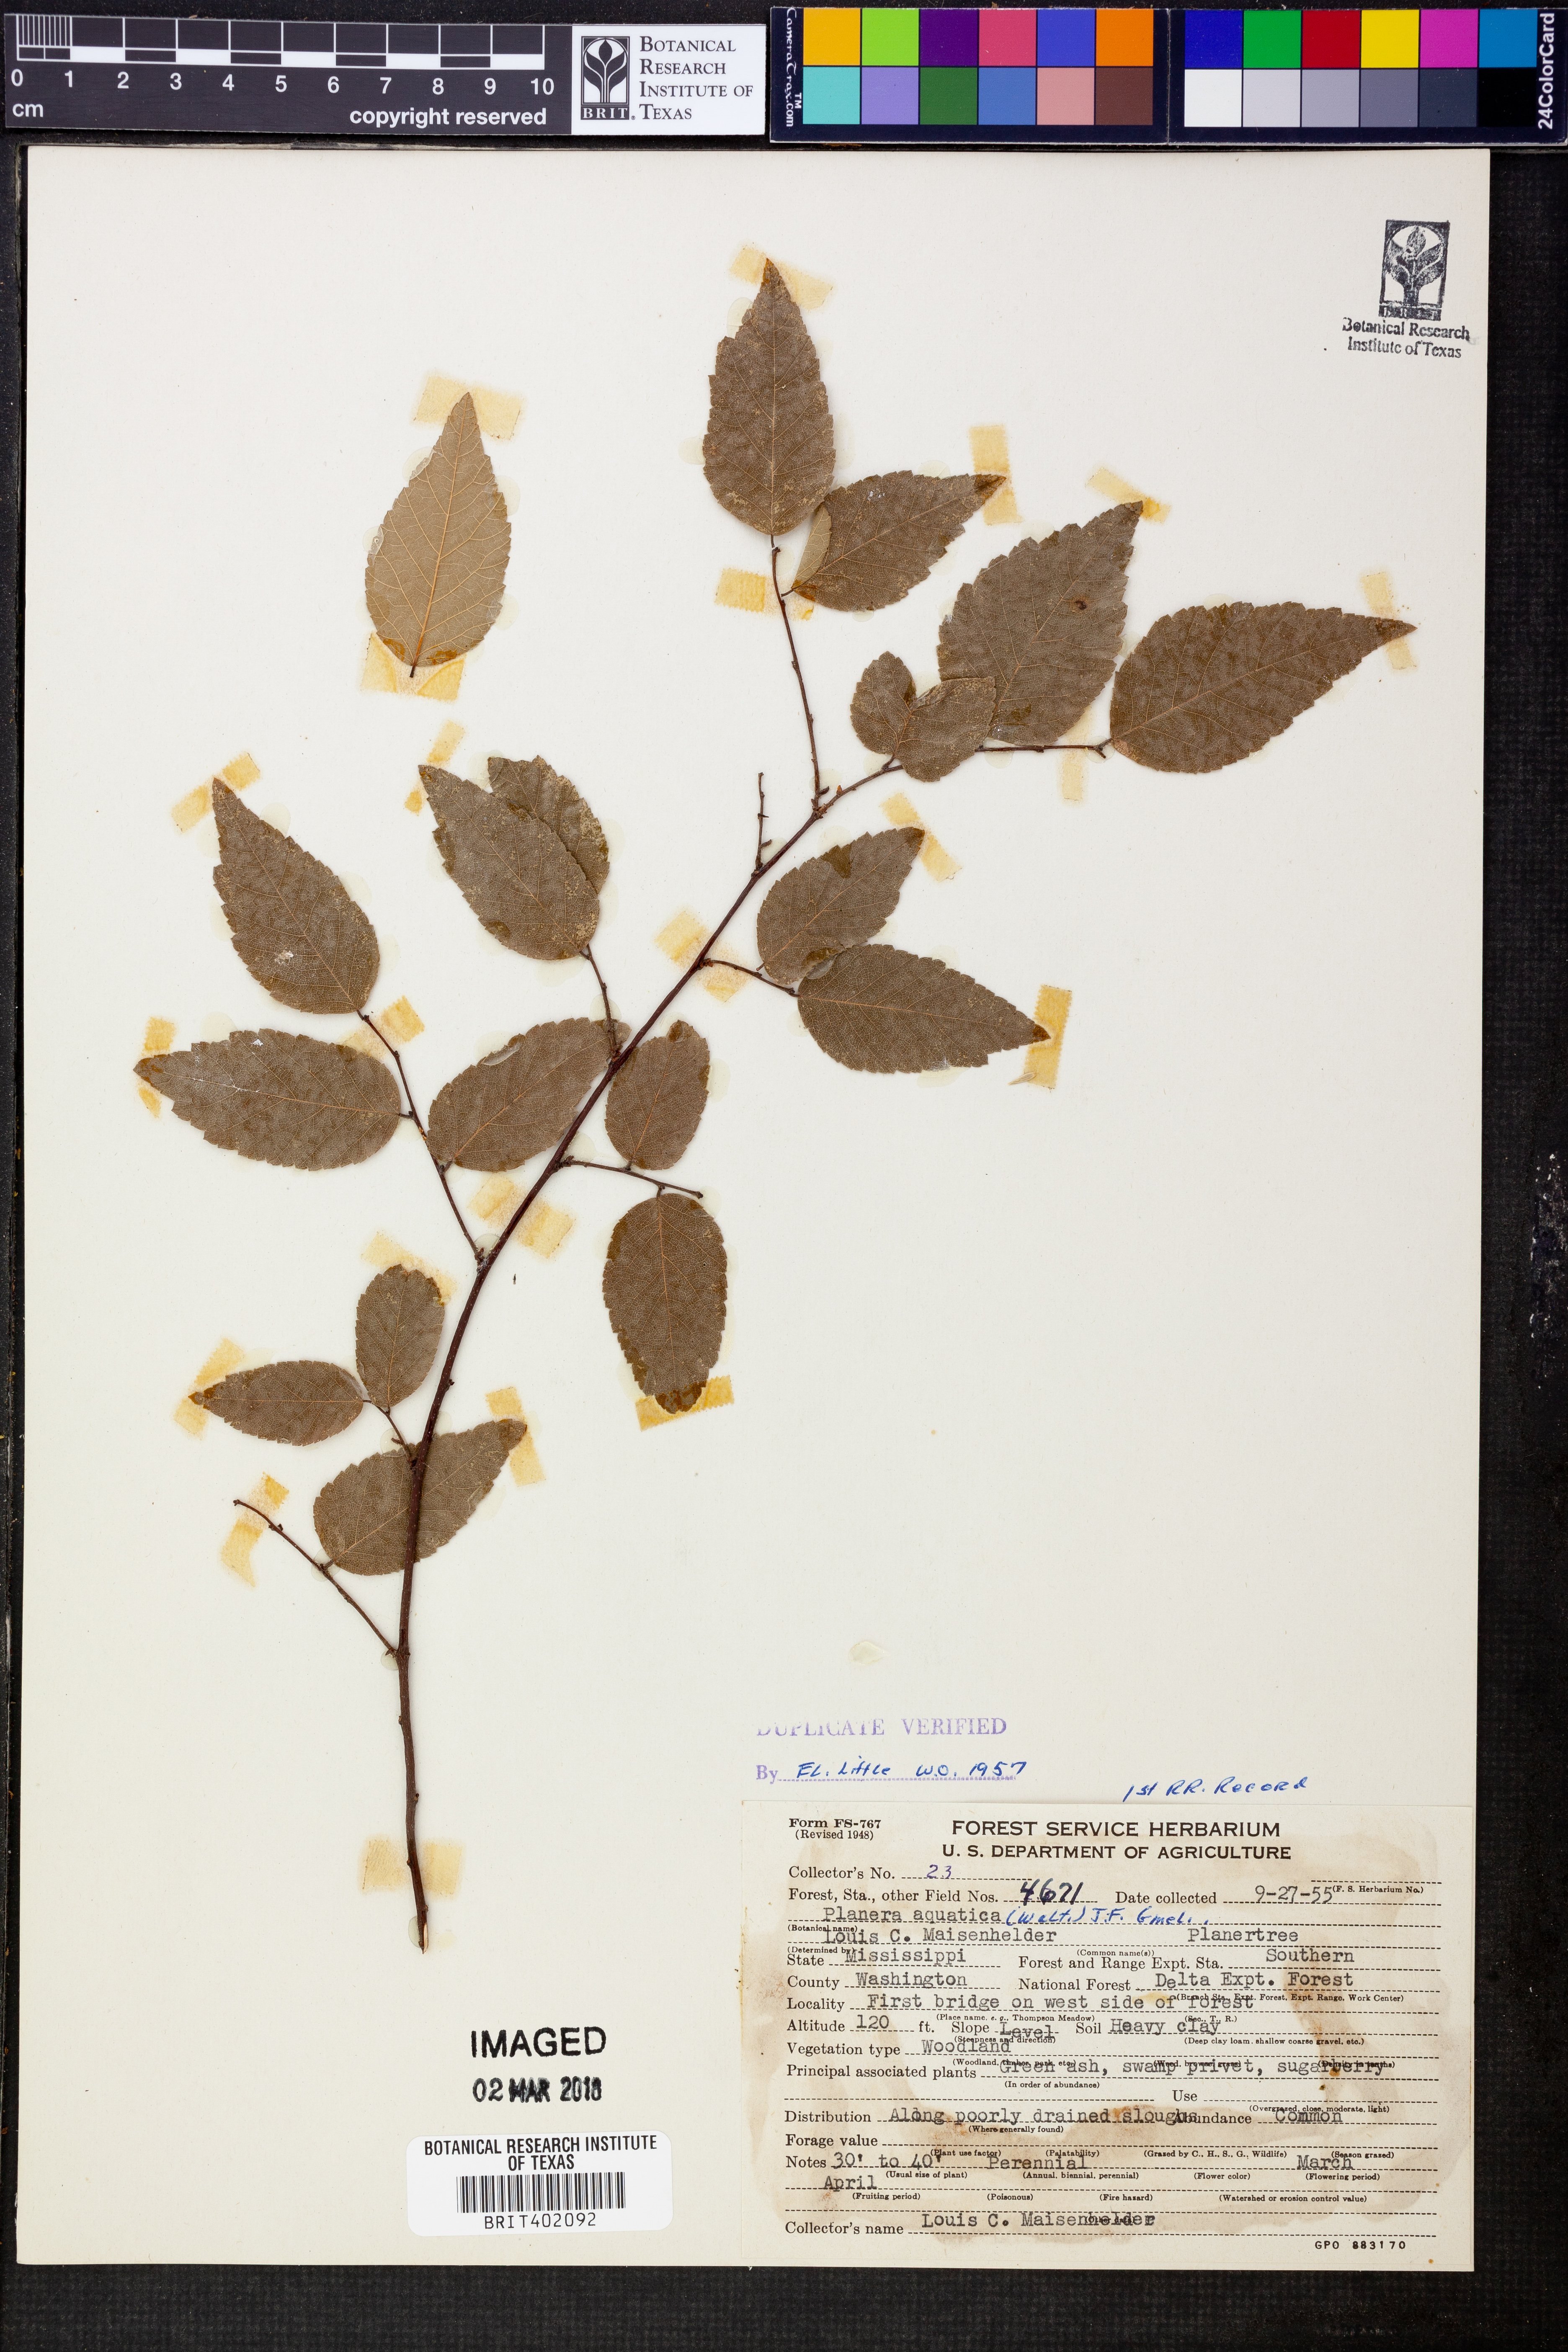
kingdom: Plantae
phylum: Tracheophyta
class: Magnoliopsida
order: Rosales
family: Ulmaceae
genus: Planera
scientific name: Planera aquatica
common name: Water-elm
